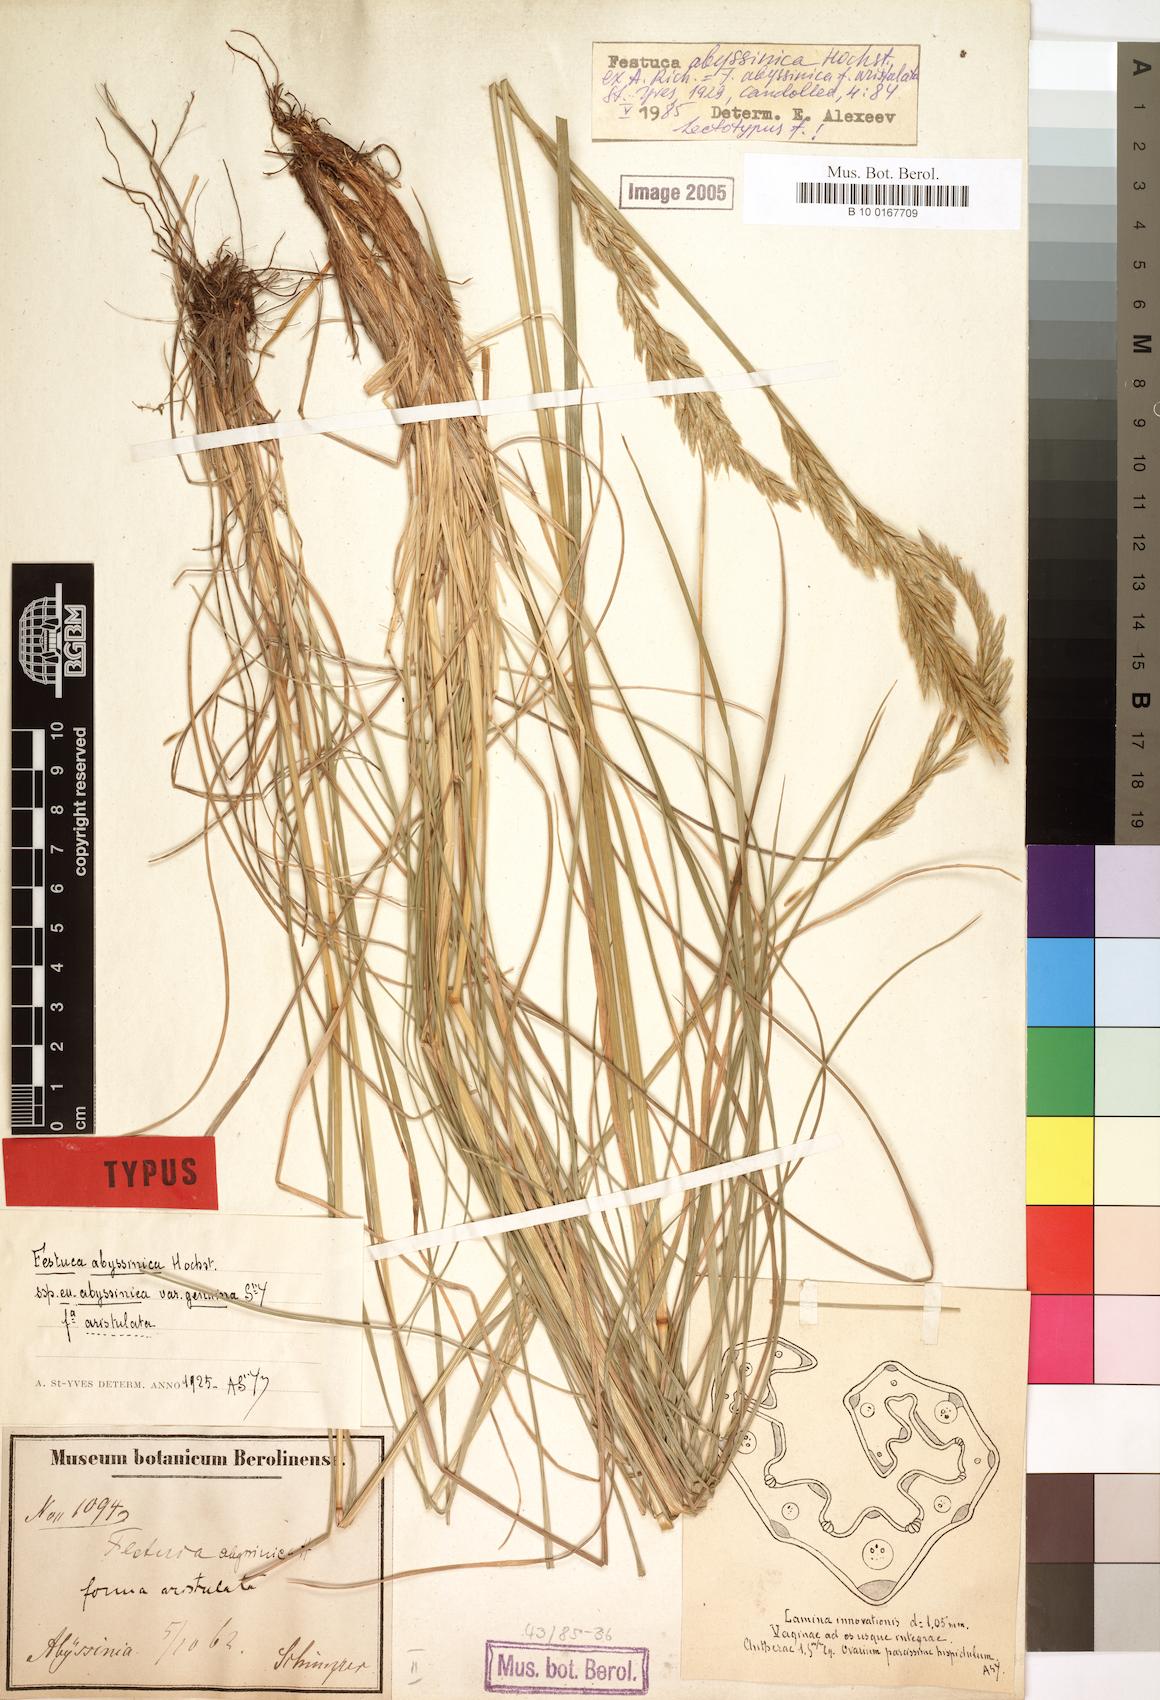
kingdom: Plantae
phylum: Tracheophyta
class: Liliopsida
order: Poales
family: Poaceae
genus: Festuca
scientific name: Festuca abyssinica
